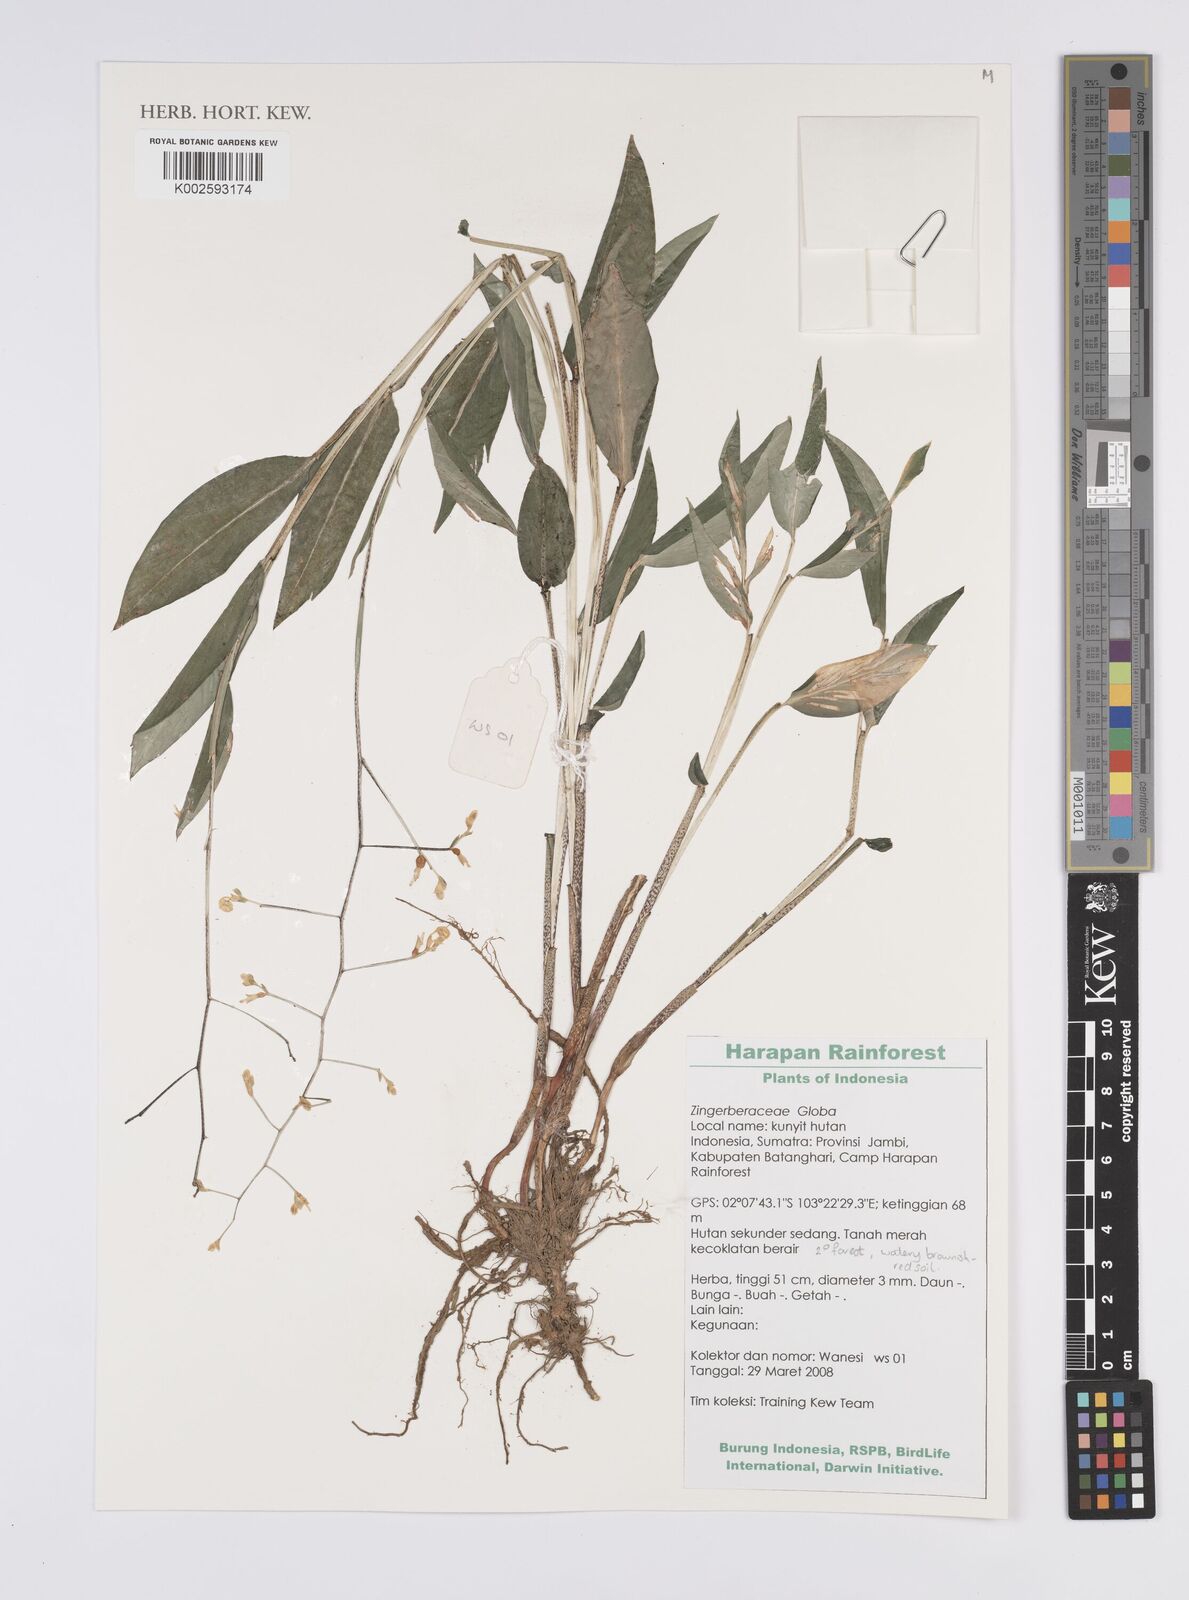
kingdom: Plantae
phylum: Tracheophyta
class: Liliopsida
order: Zingiberales
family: Zingiberaceae
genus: Globba
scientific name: Globba
